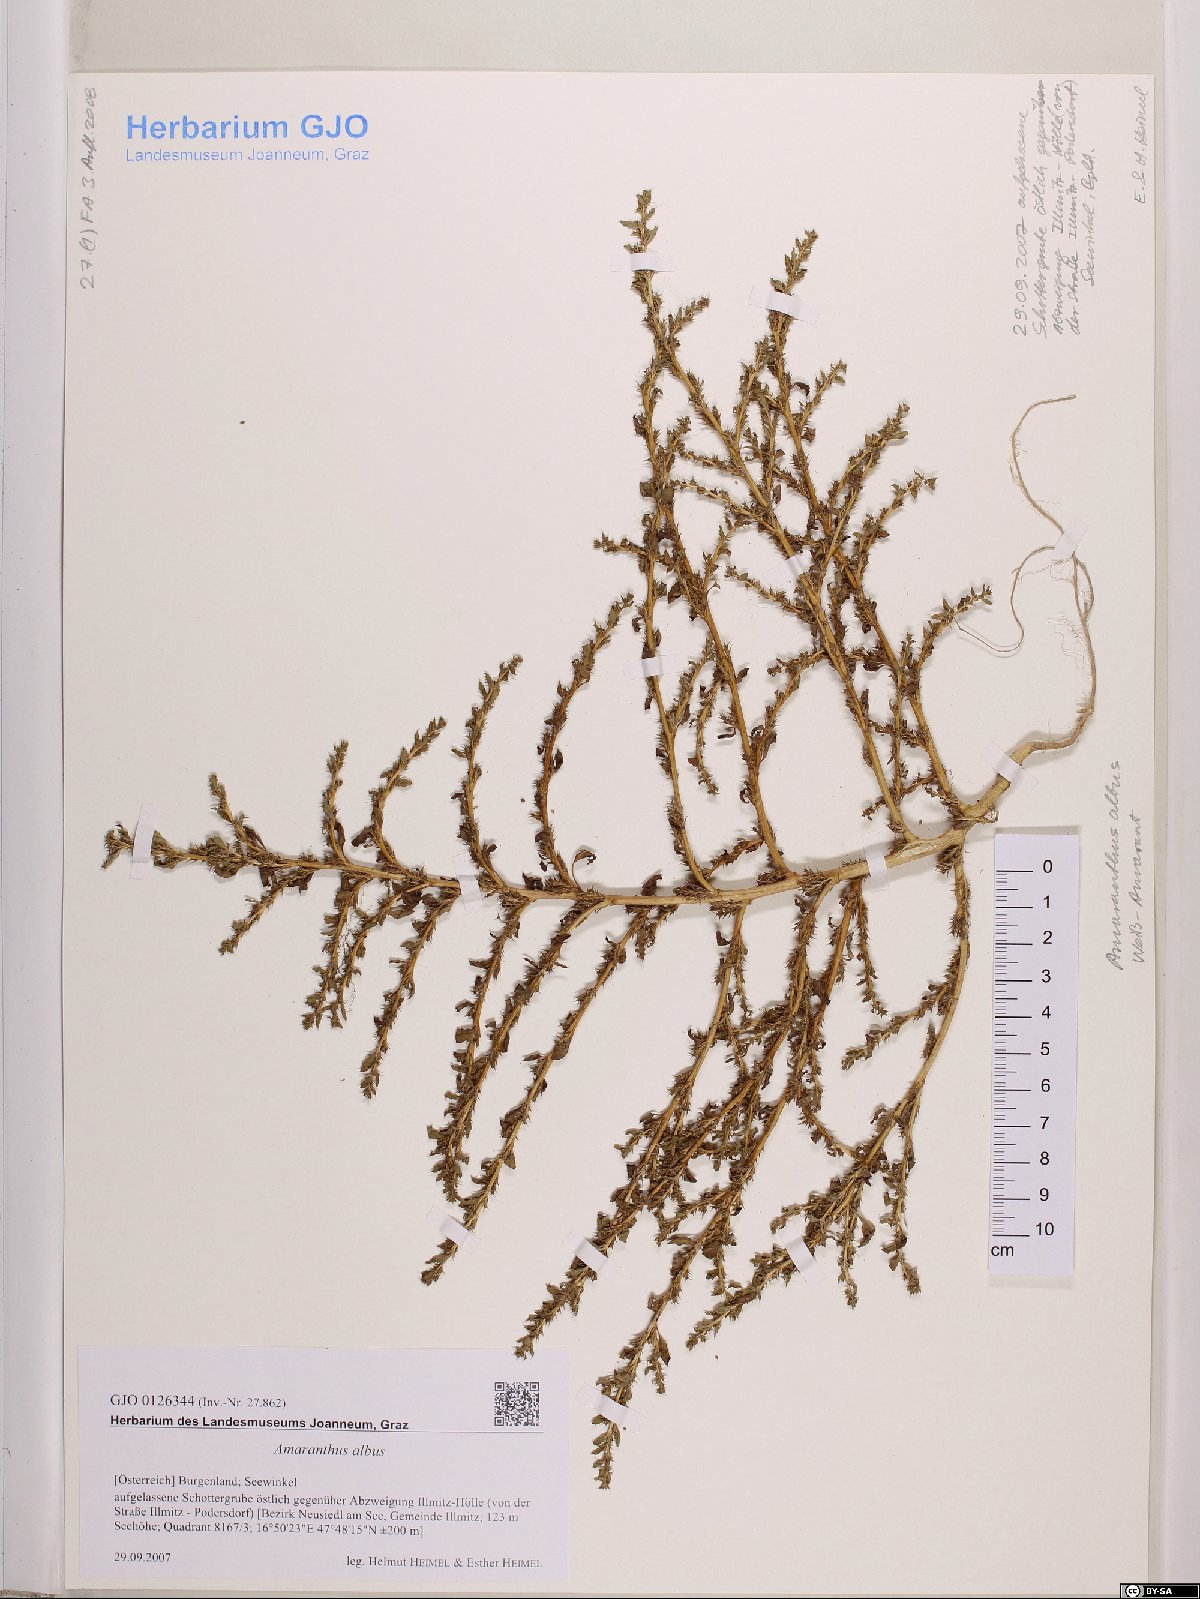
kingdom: Plantae
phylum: Tracheophyta
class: Magnoliopsida
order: Caryophyllales
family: Amaranthaceae
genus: Amaranthus
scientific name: Amaranthus albus
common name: White pigweed
